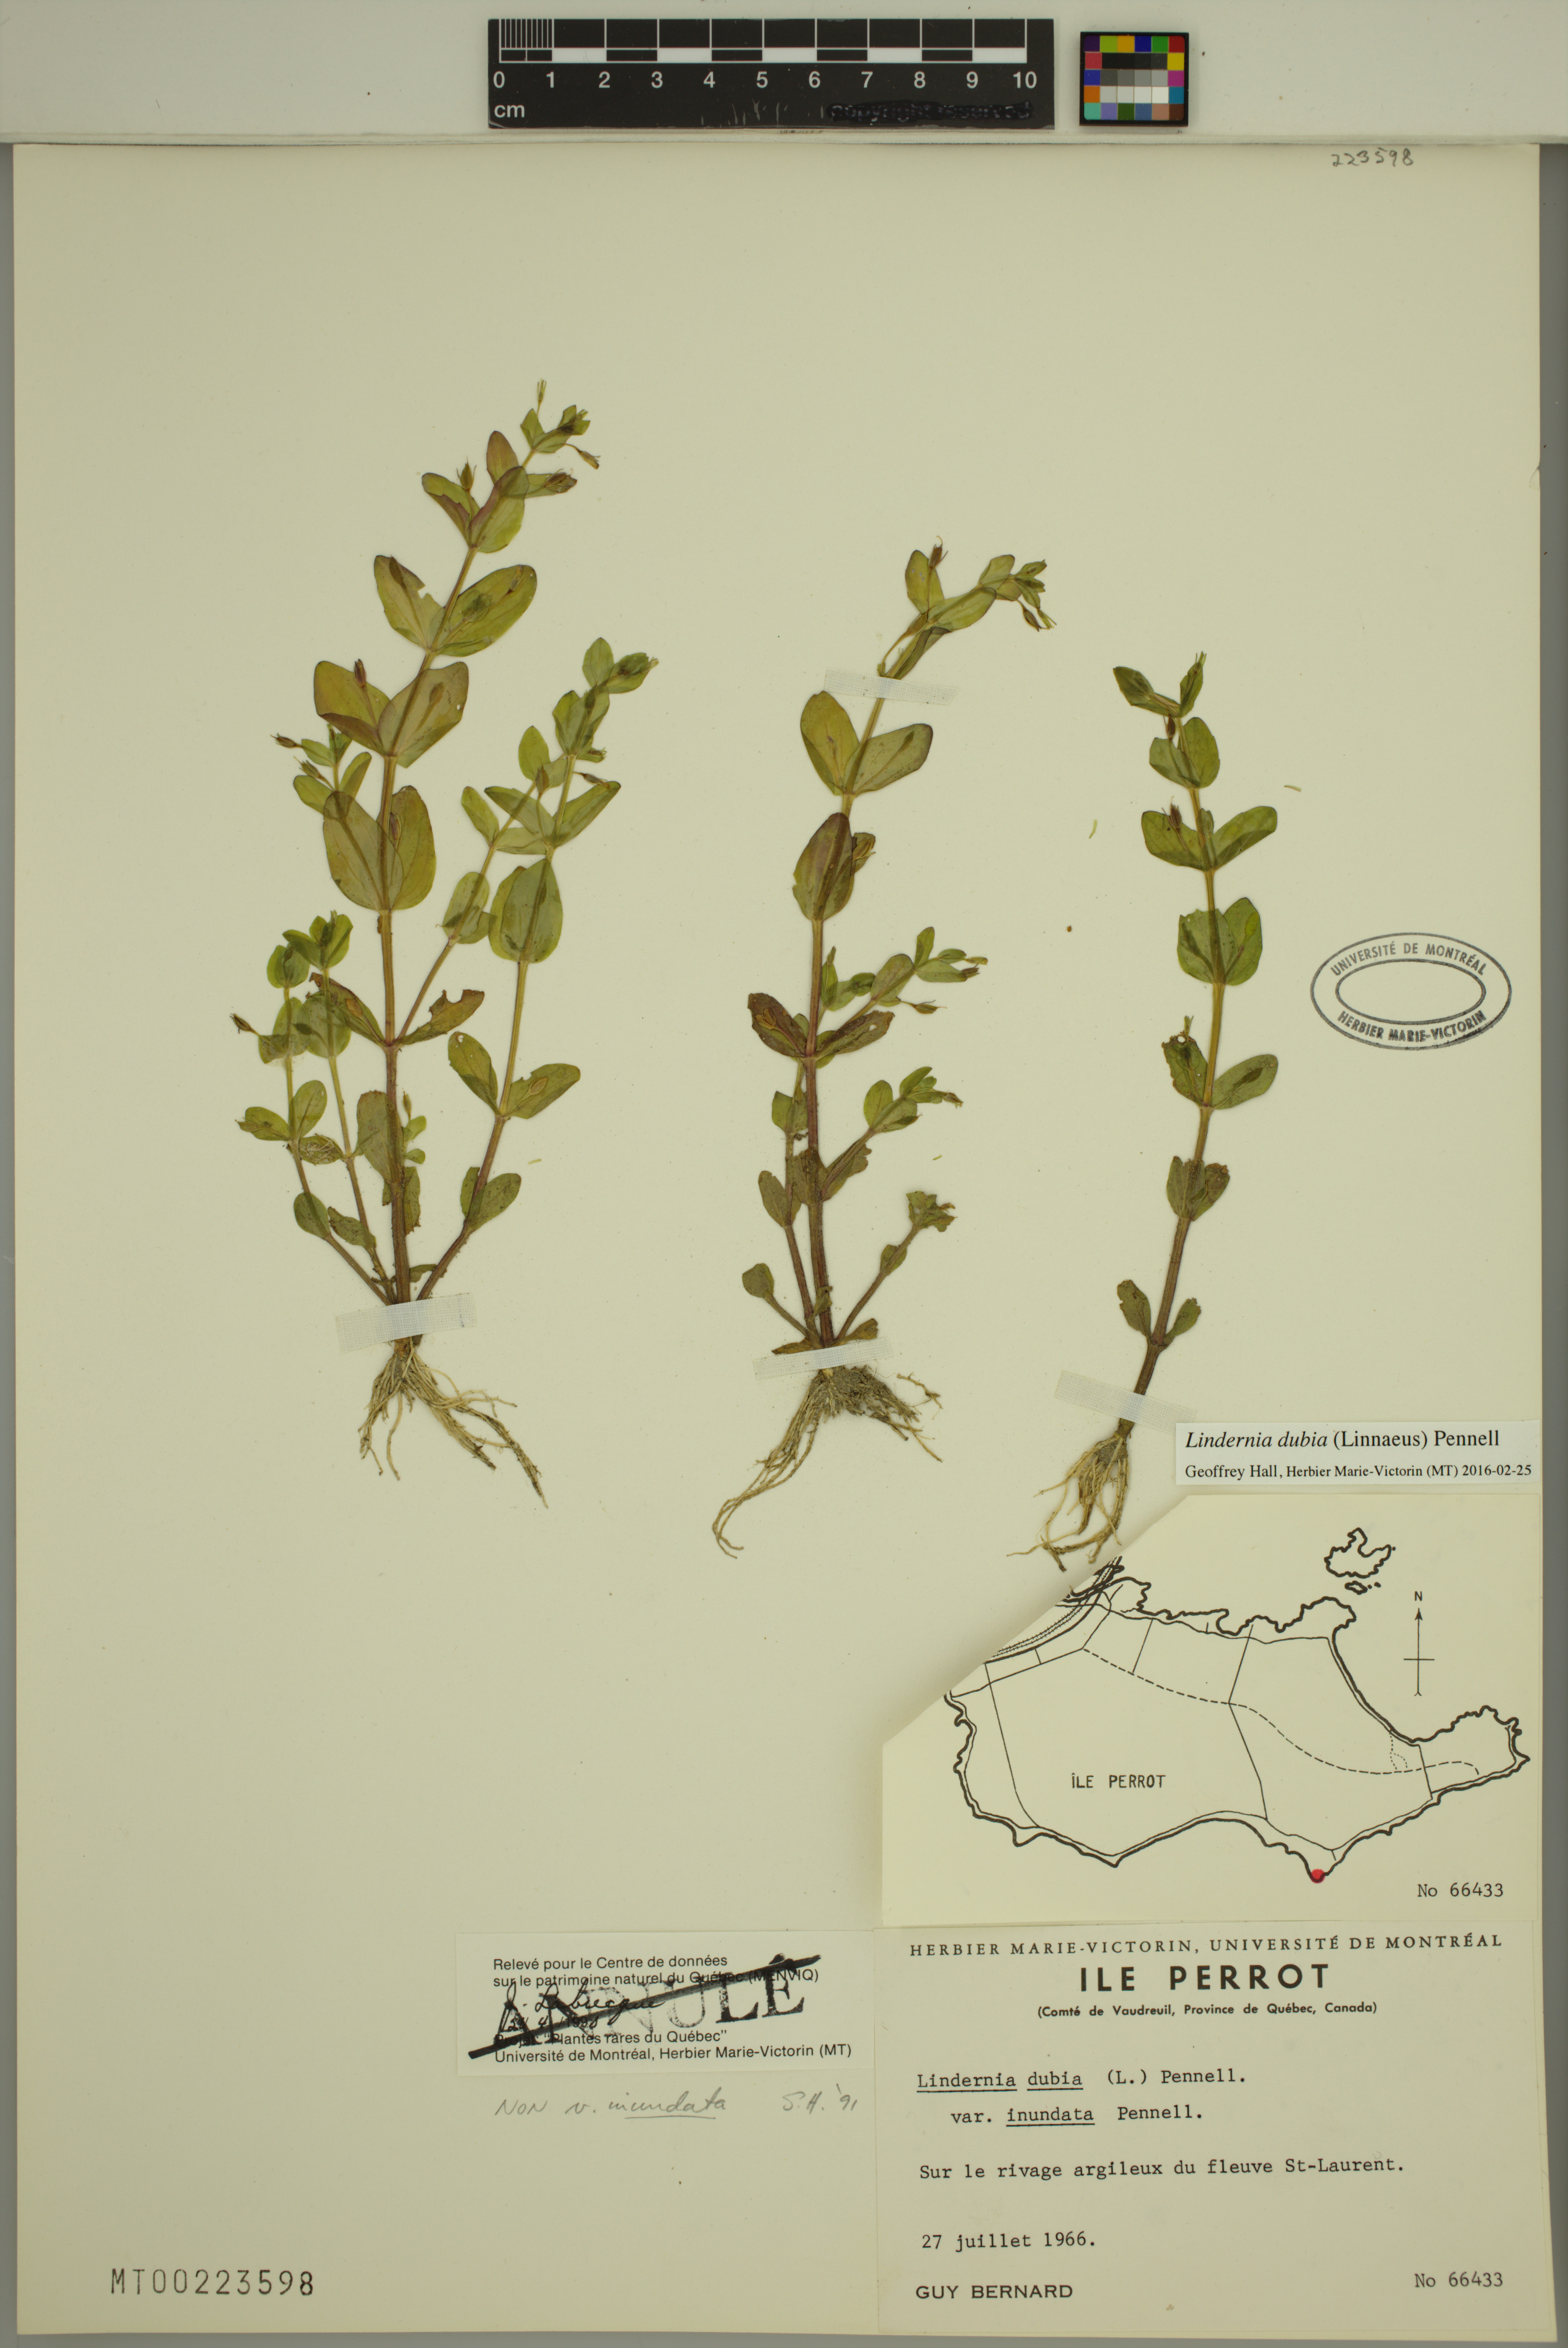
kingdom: Plantae
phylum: Tracheophyta
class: Magnoliopsida
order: Lamiales
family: Linderniaceae
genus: Lindernia
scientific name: Lindernia dubia
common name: Annual false pimpernel
